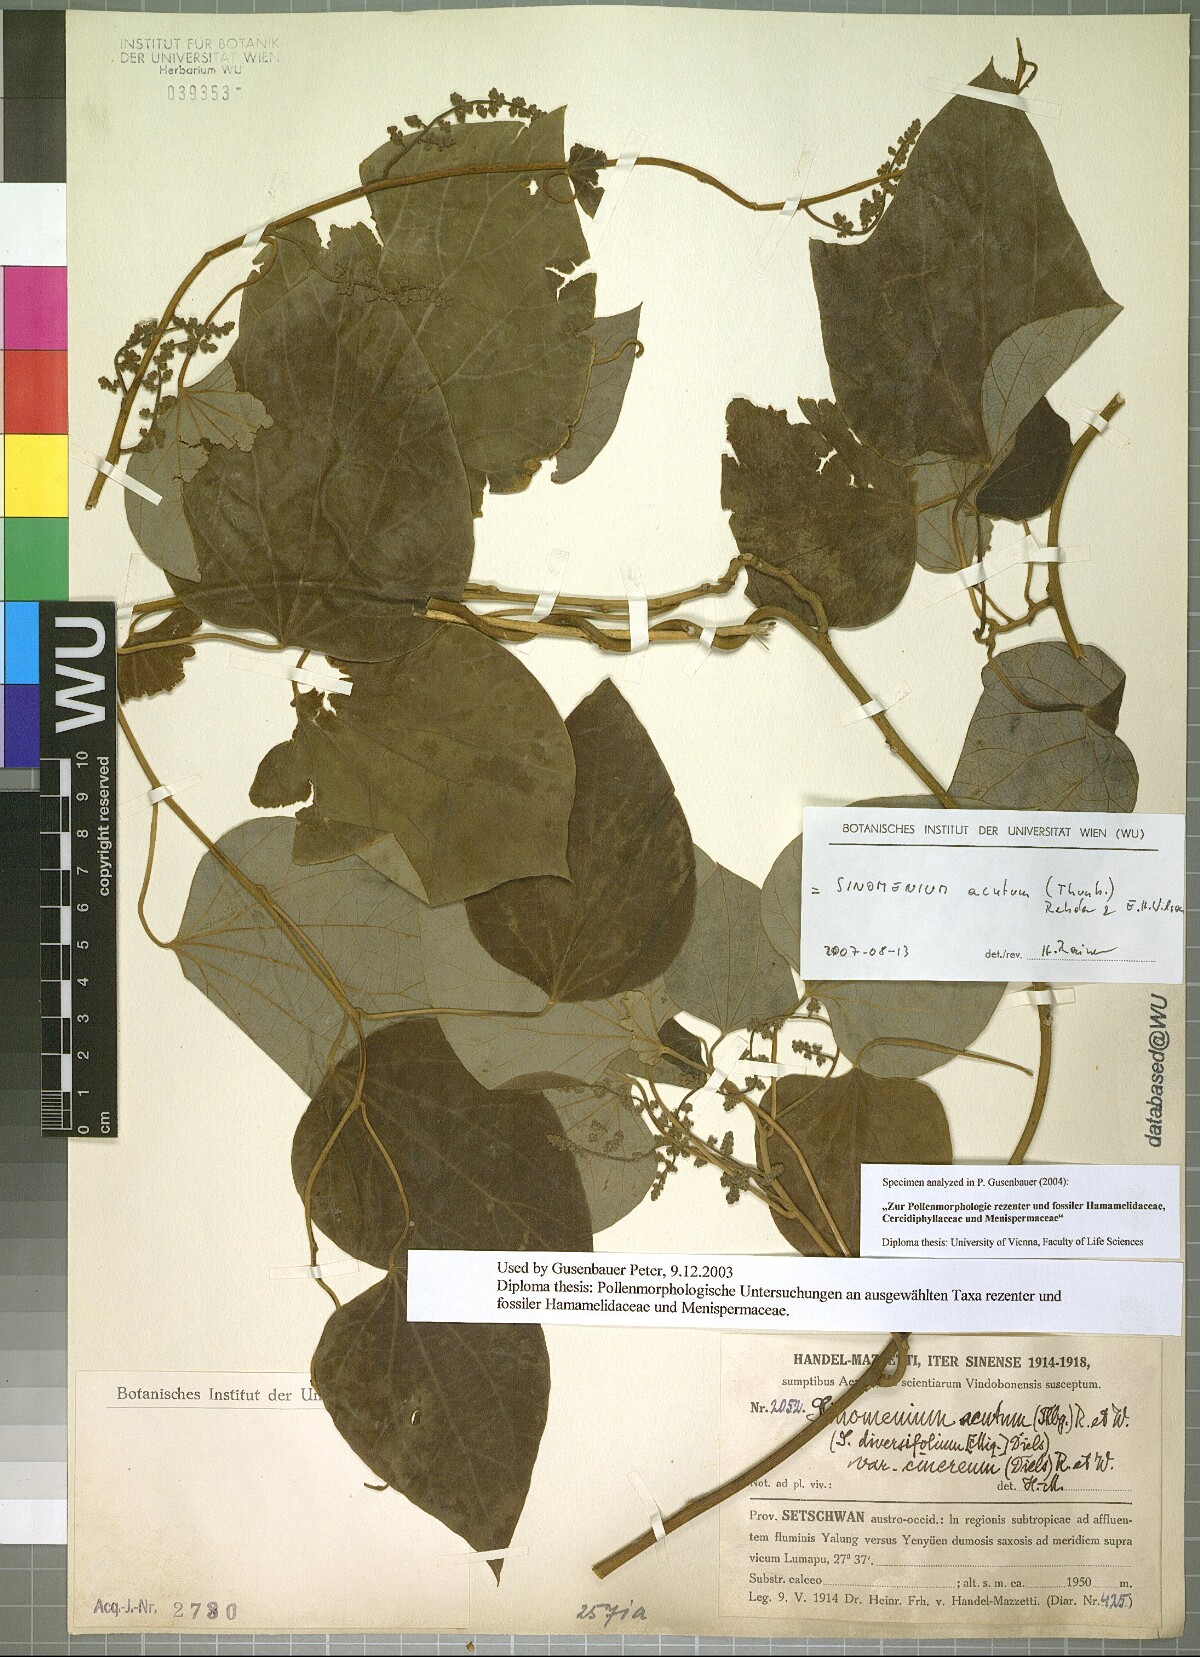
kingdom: Plantae
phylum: Tracheophyta
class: Magnoliopsida
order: Ranunculales
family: Menispermaceae
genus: Sinomenium
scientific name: Sinomenium acutum
